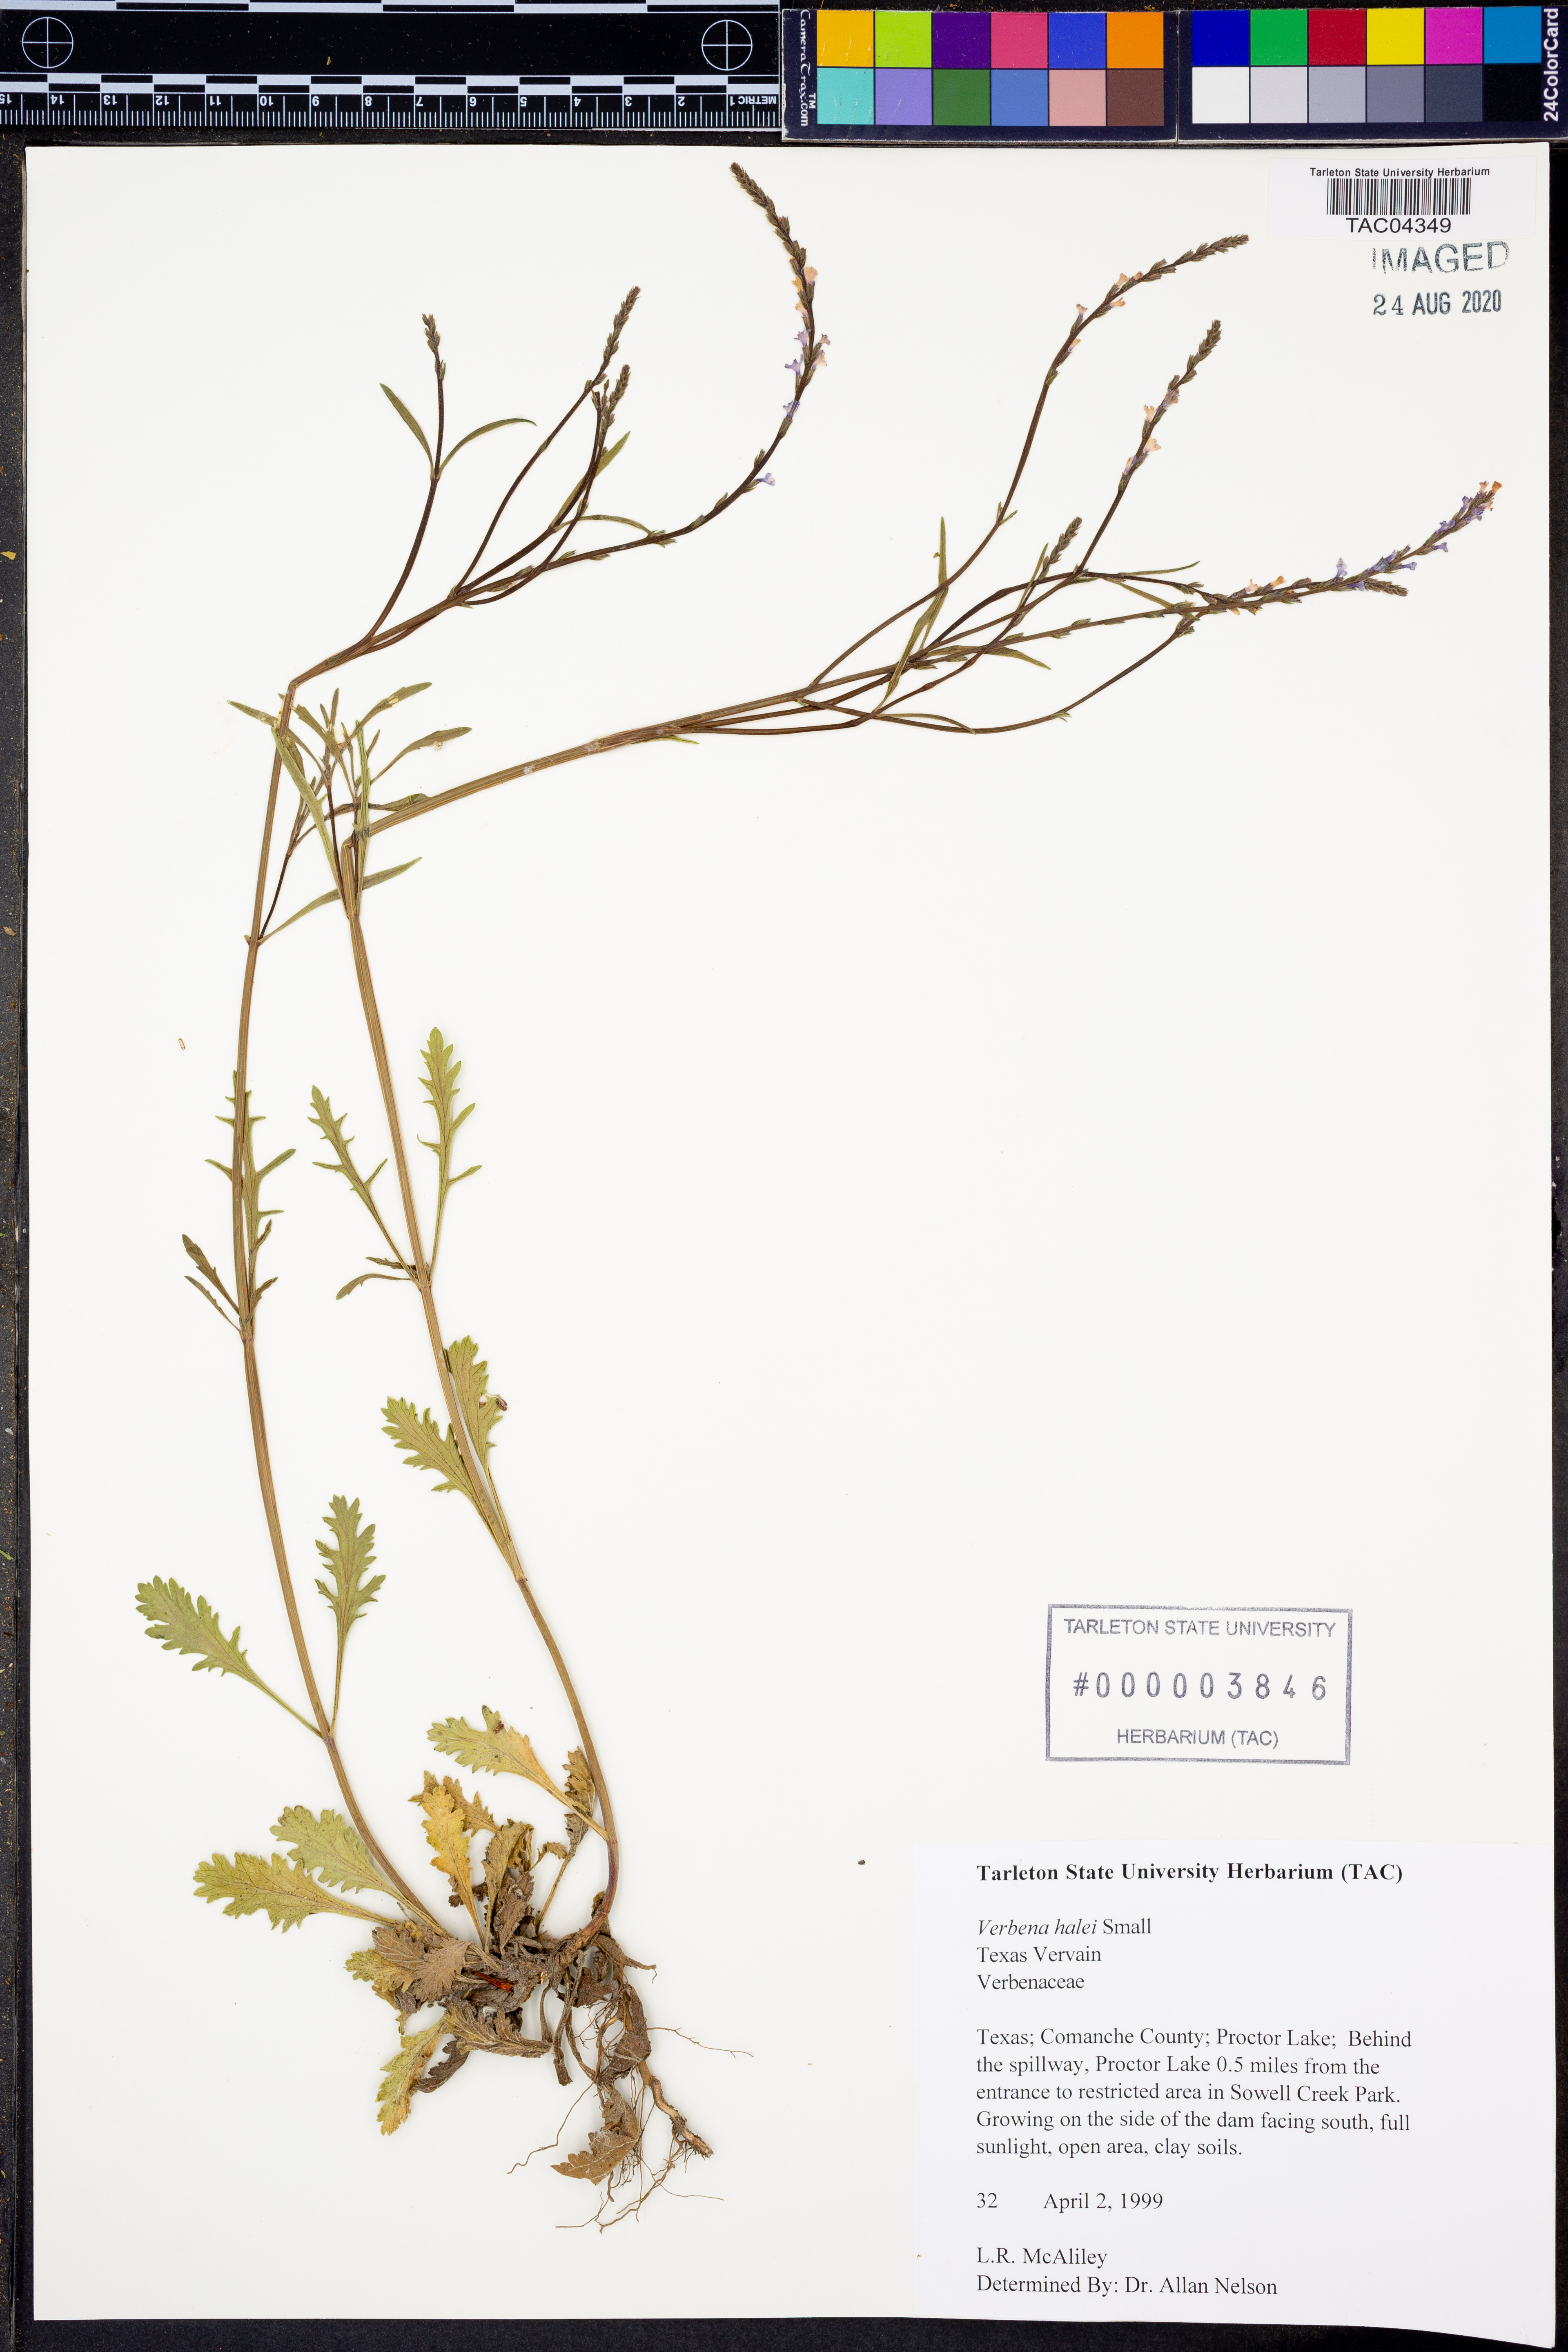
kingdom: Plantae
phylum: Tracheophyta
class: Magnoliopsida
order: Lamiales
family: Verbenaceae
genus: Verbena
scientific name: Verbena halei
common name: Texas vervain
